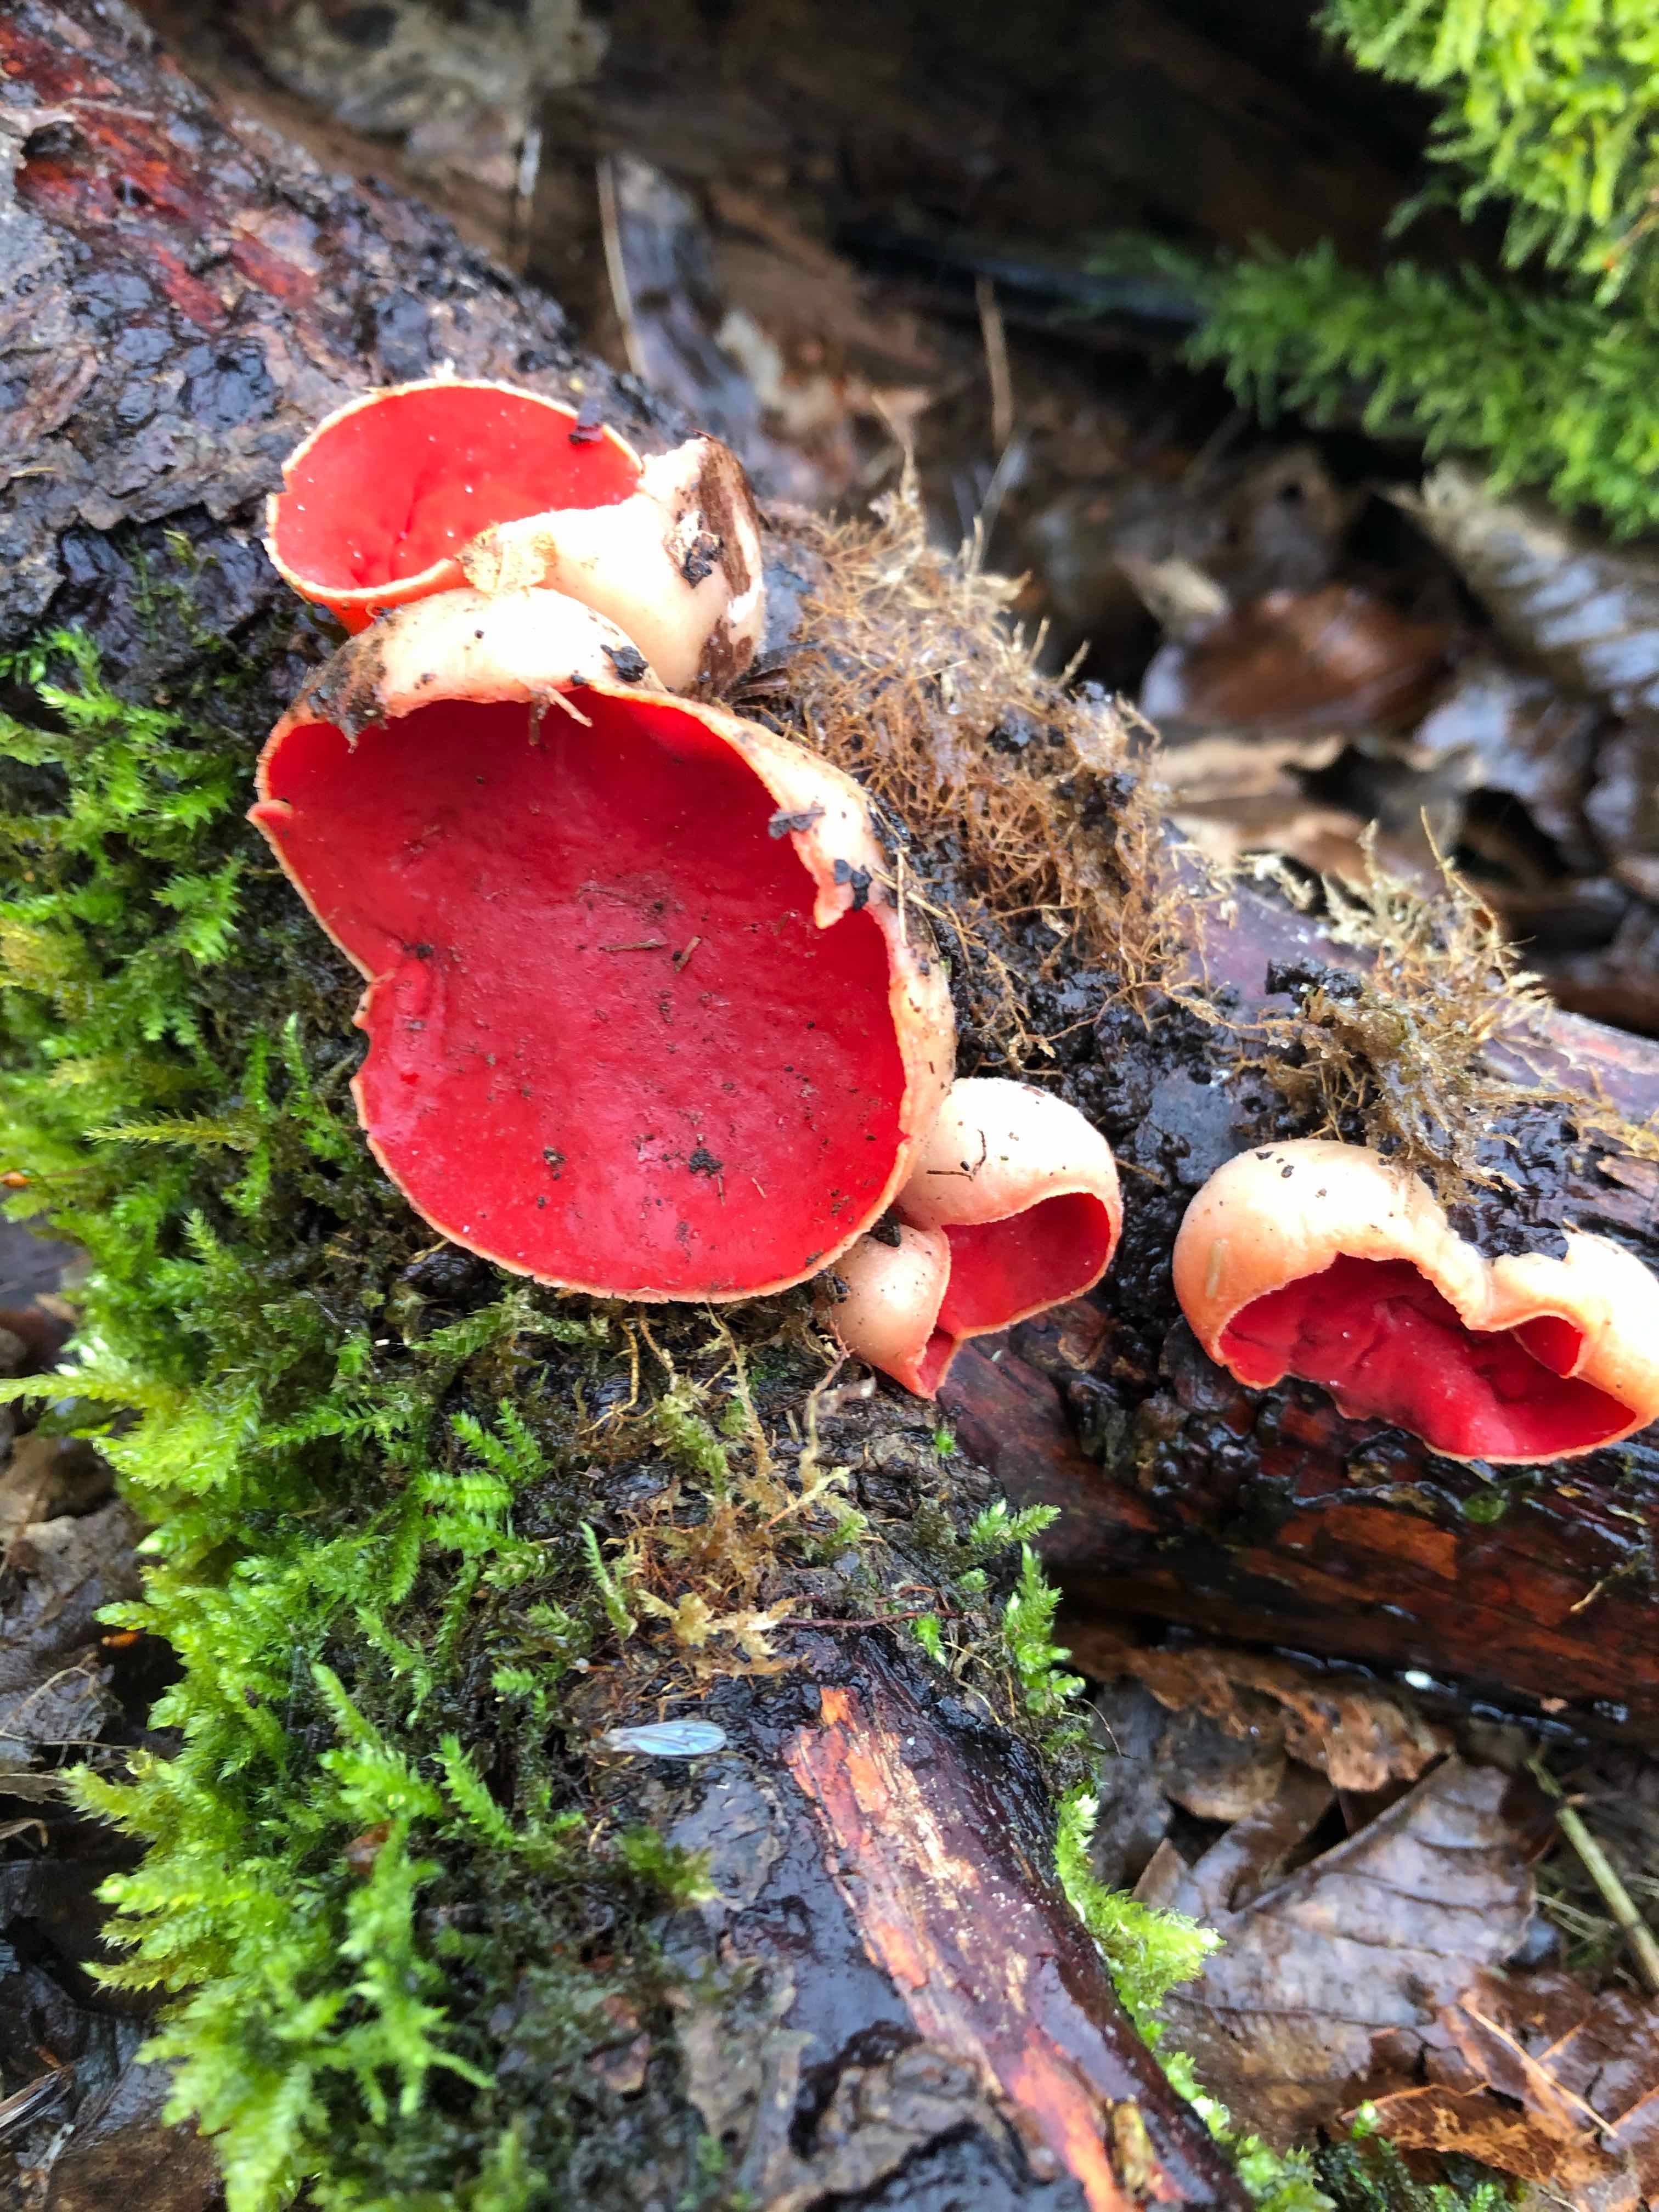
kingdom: Fungi
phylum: Ascomycota
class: Pezizomycetes
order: Pezizales
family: Sarcoscyphaceae
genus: Sarcoscypha
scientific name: Sarcoscypha austriaca
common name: krølhåret pragtbæger
